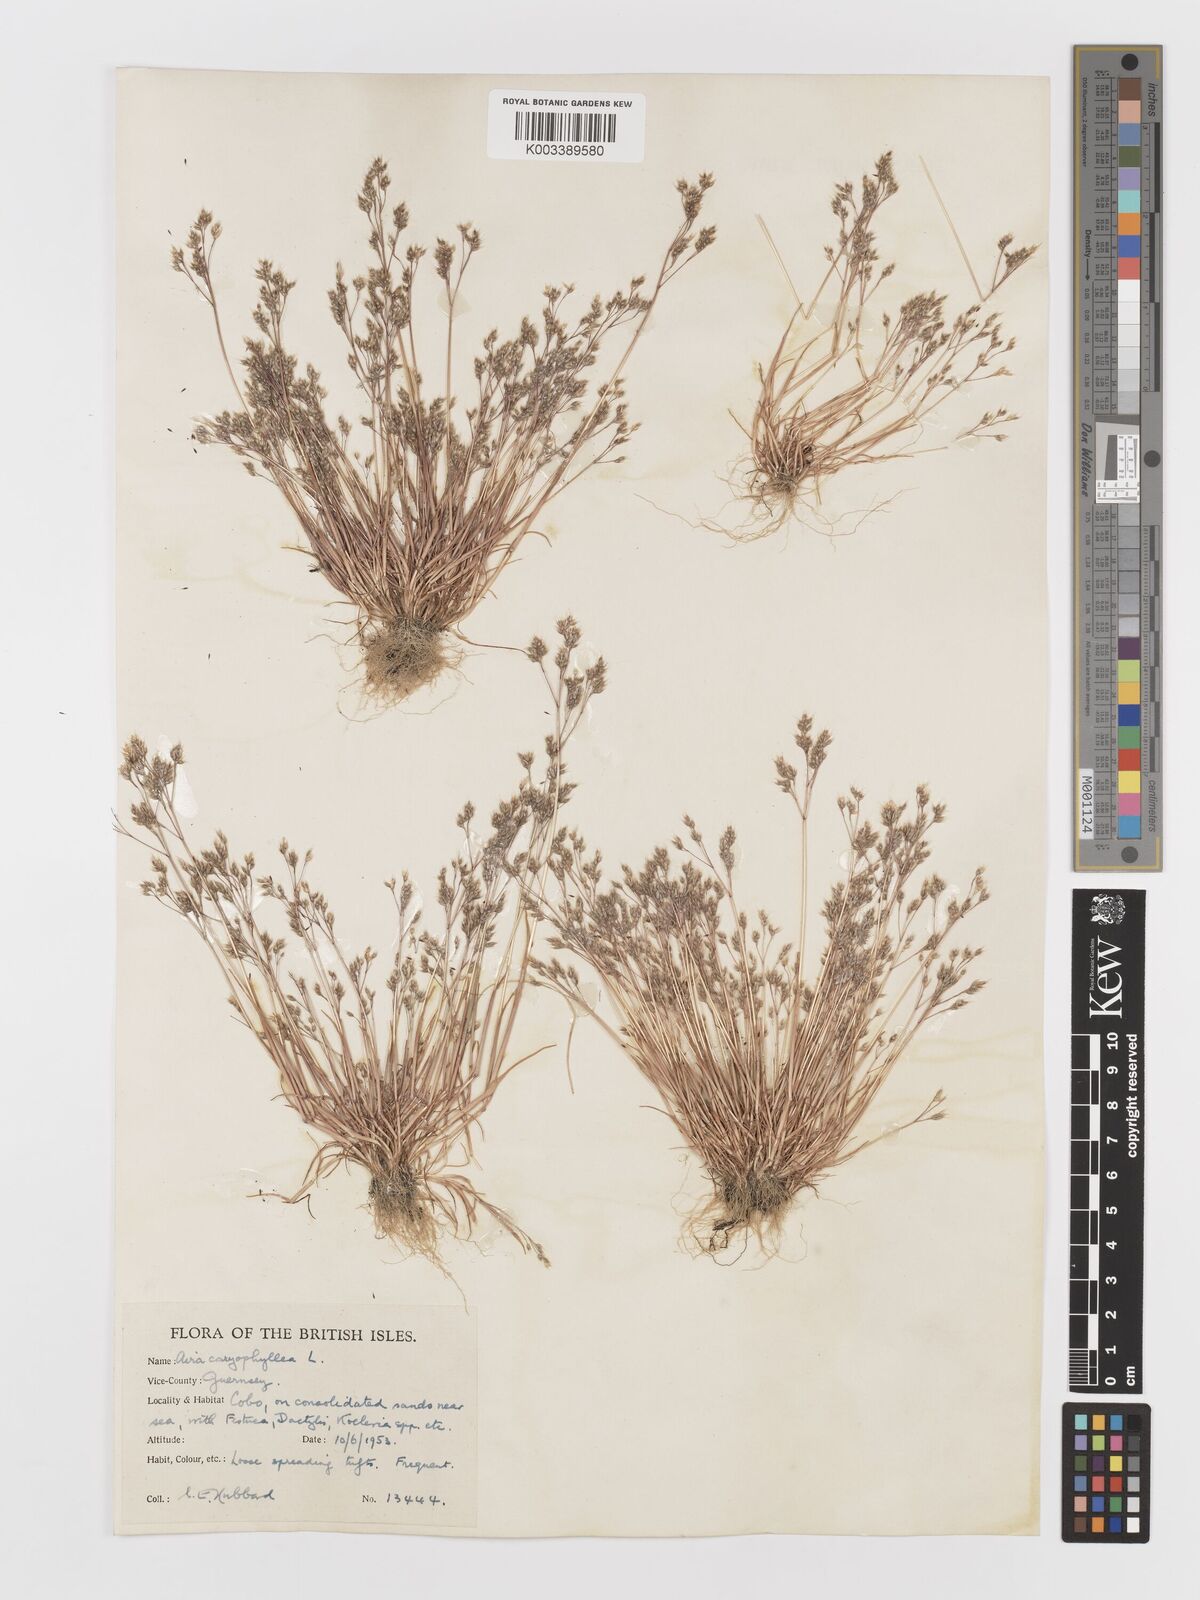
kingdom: Plantae
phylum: Tracheophyta
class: Liliopsida
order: Poales
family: Poaceae
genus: Aira
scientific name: Aira caryophyllea
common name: Silver hairgrass
